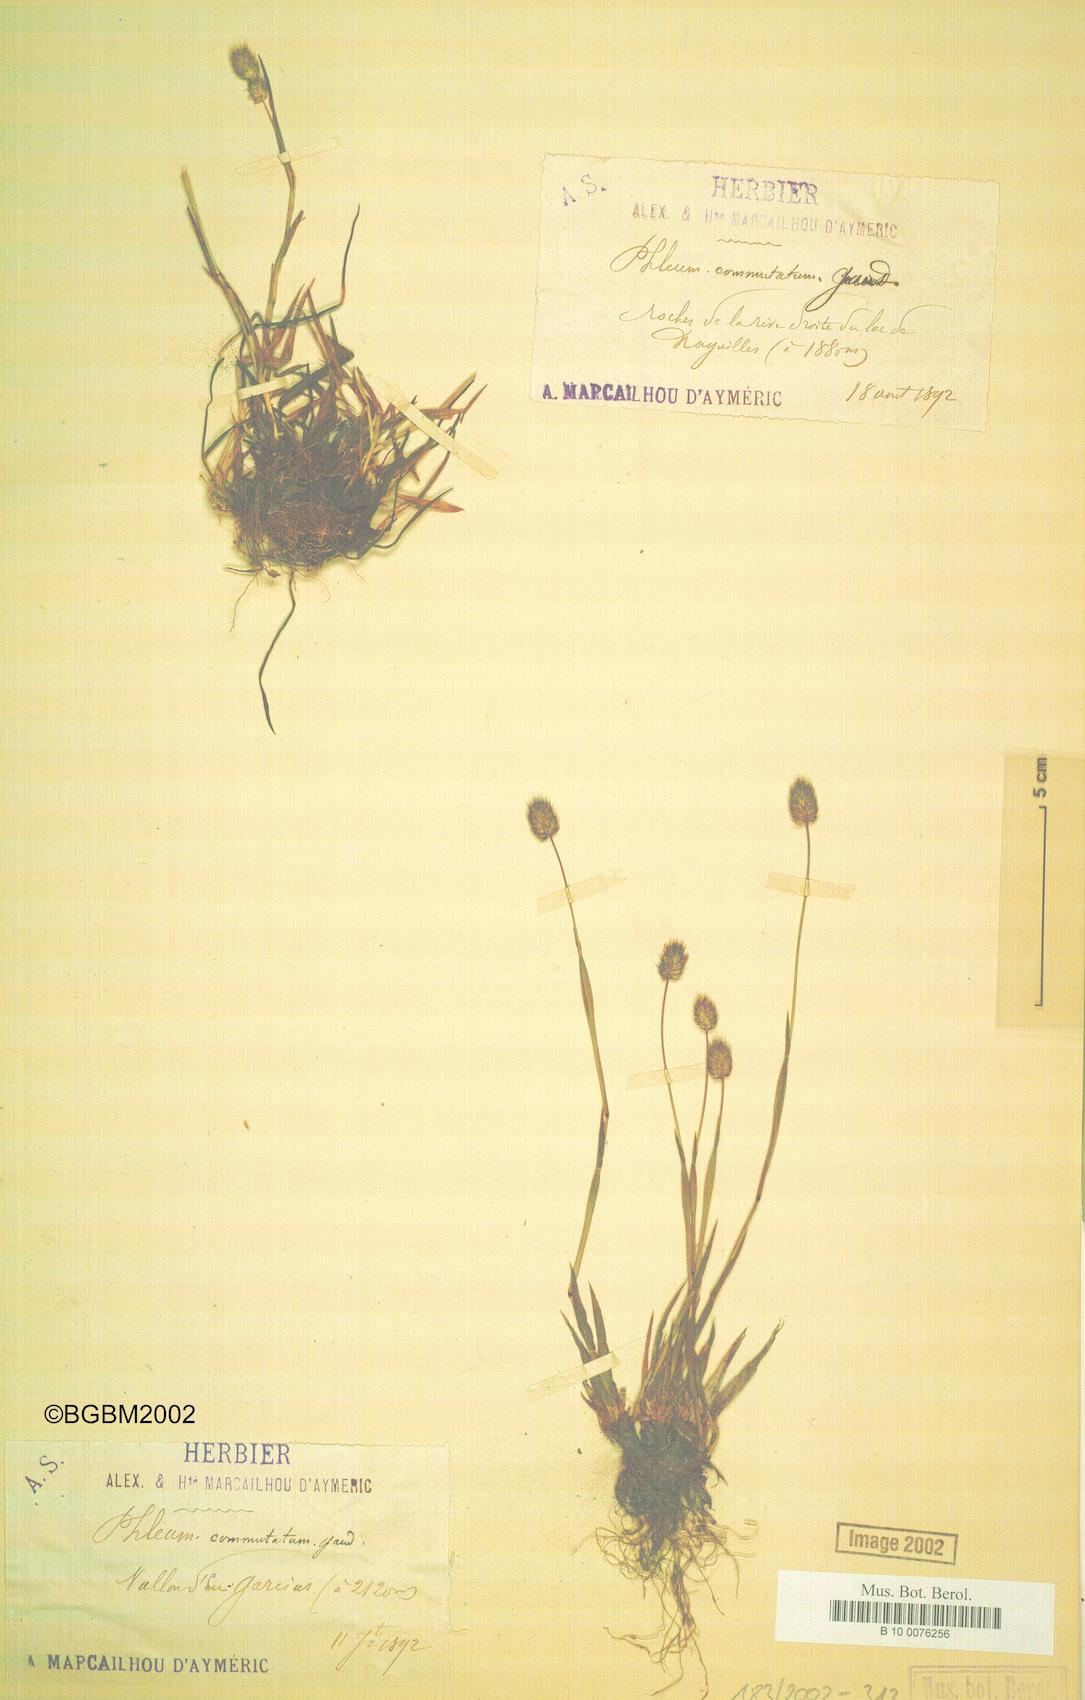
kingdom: Plantae
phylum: Tracheophyta
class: Liliopsida
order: Poales
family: Poaceae
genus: Phleum
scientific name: Phleum alpinum
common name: Alpine cat's-tail
